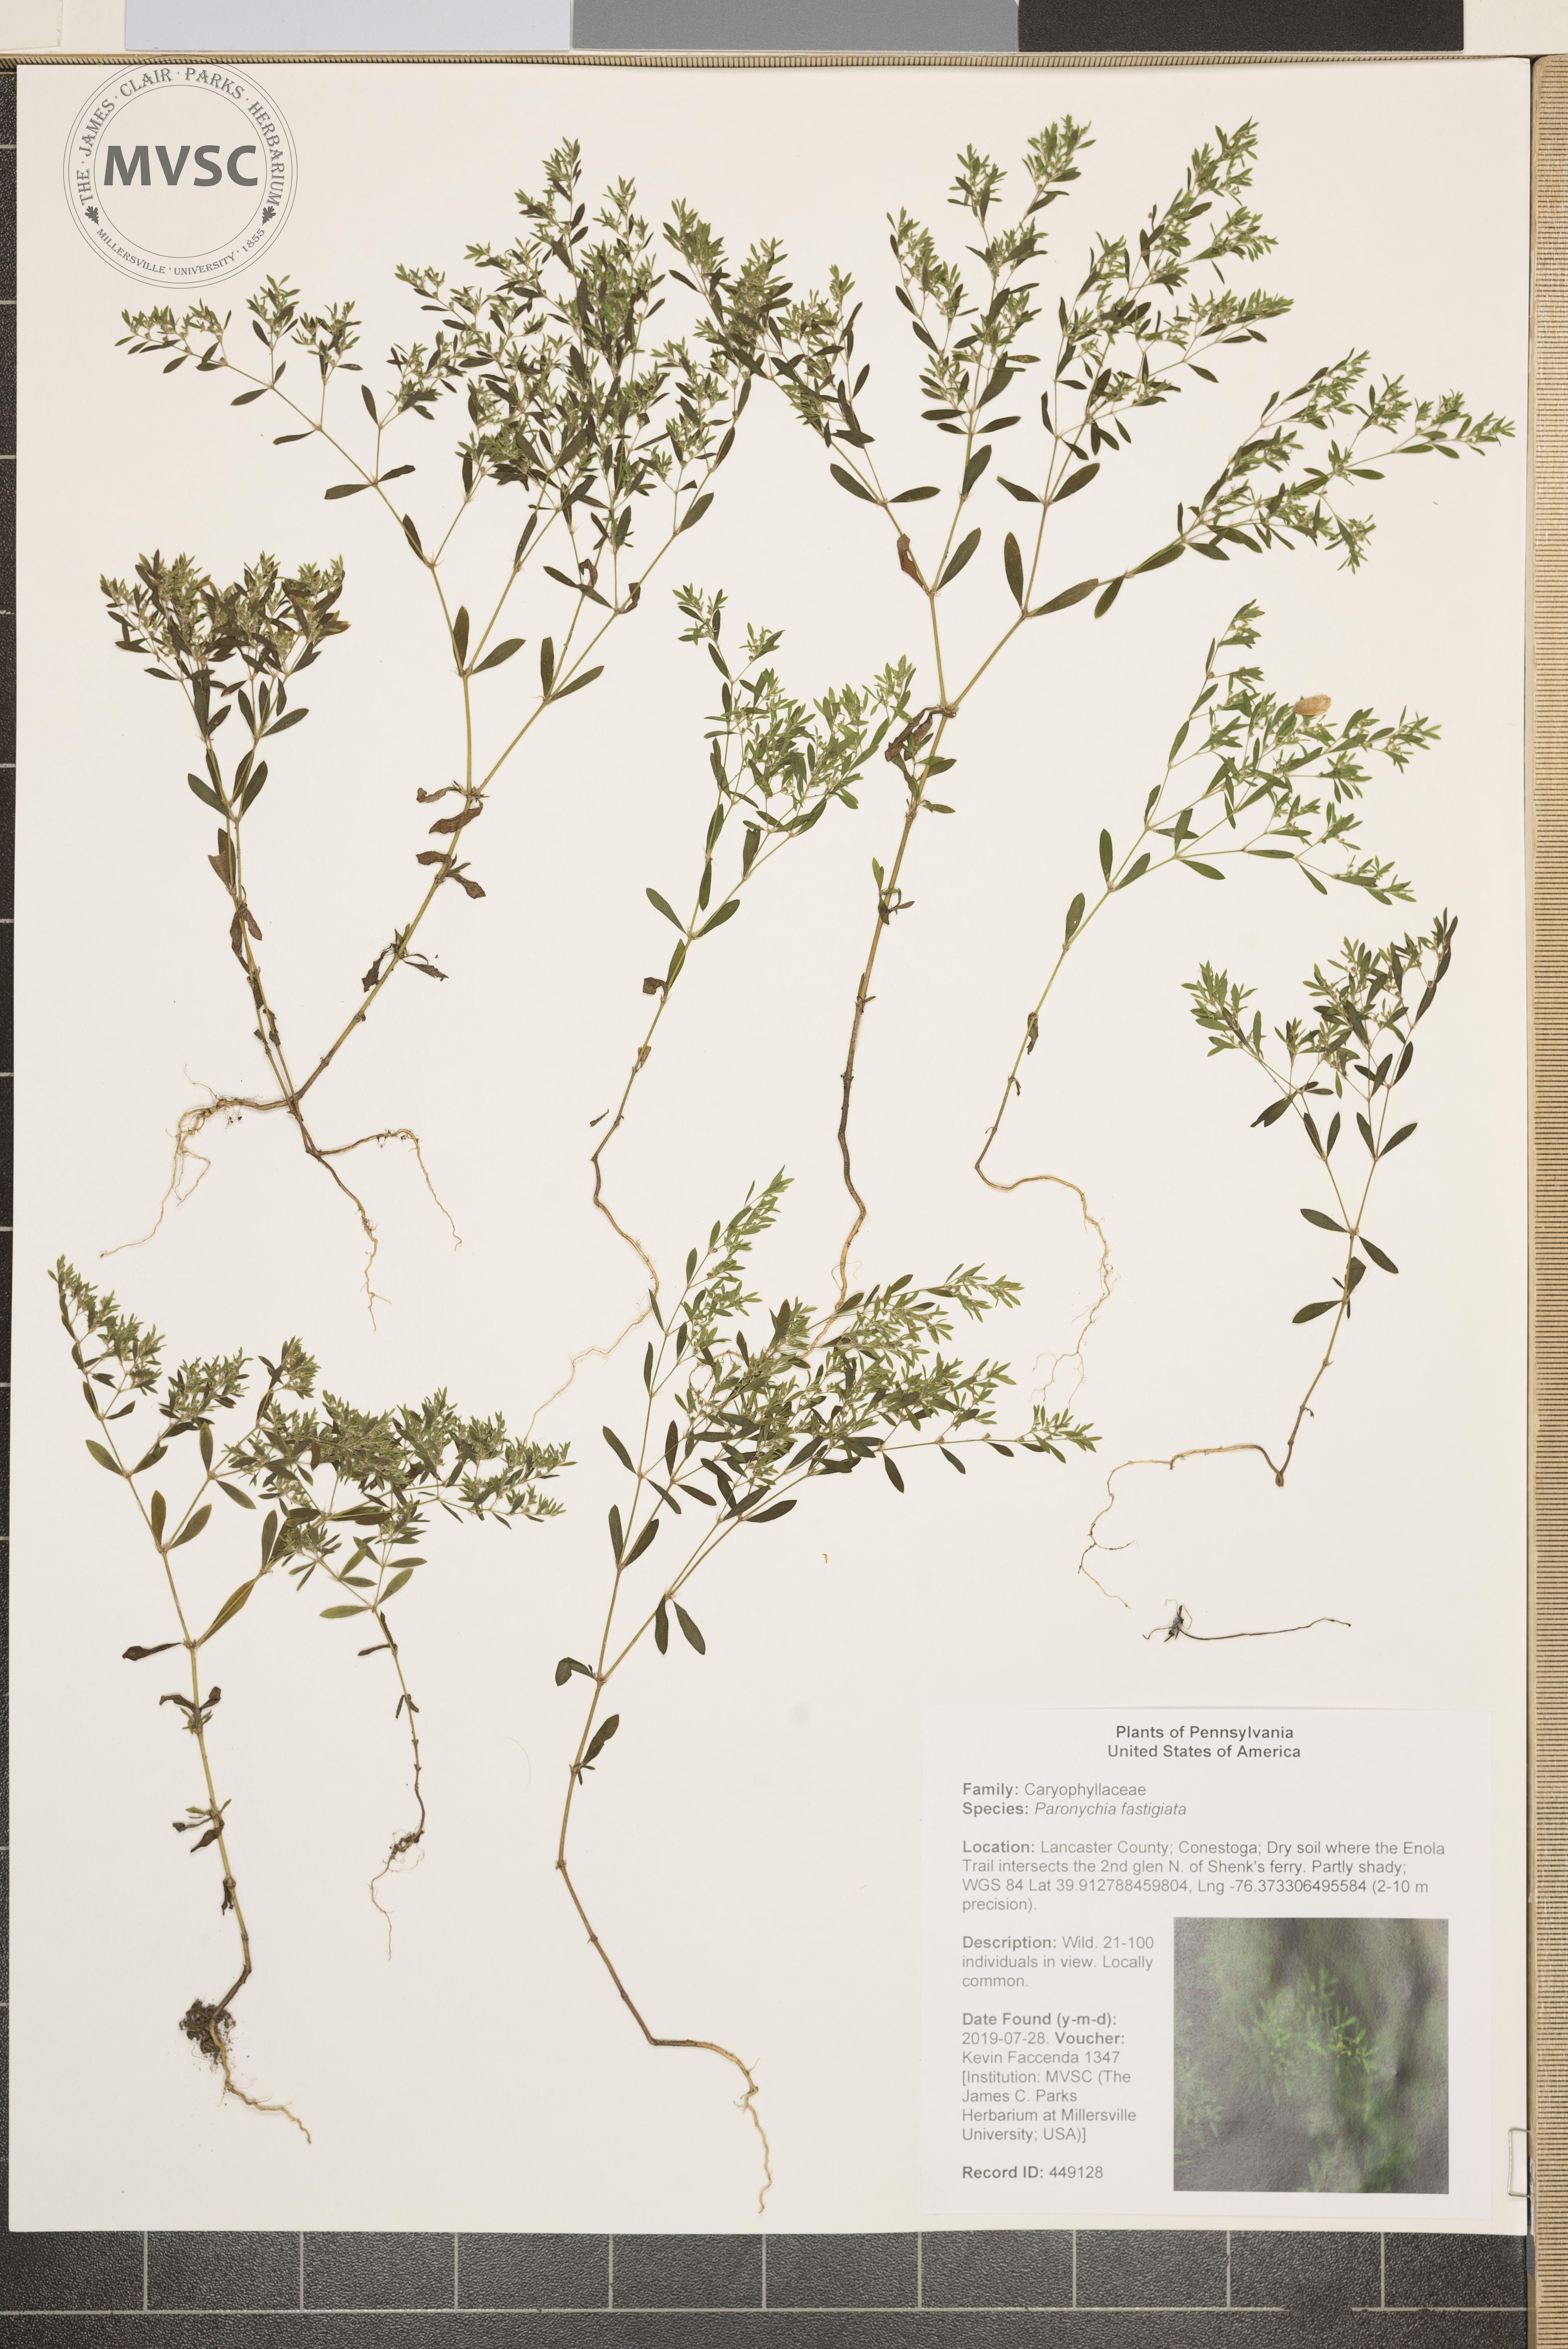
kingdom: Plantae
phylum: Tracheophyta
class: Magnoliopsida
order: Caryophyllales
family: Caryophyllaceae
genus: Paronychia
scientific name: Paronychia fastigiata
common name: Branching forked whitlow-wort
